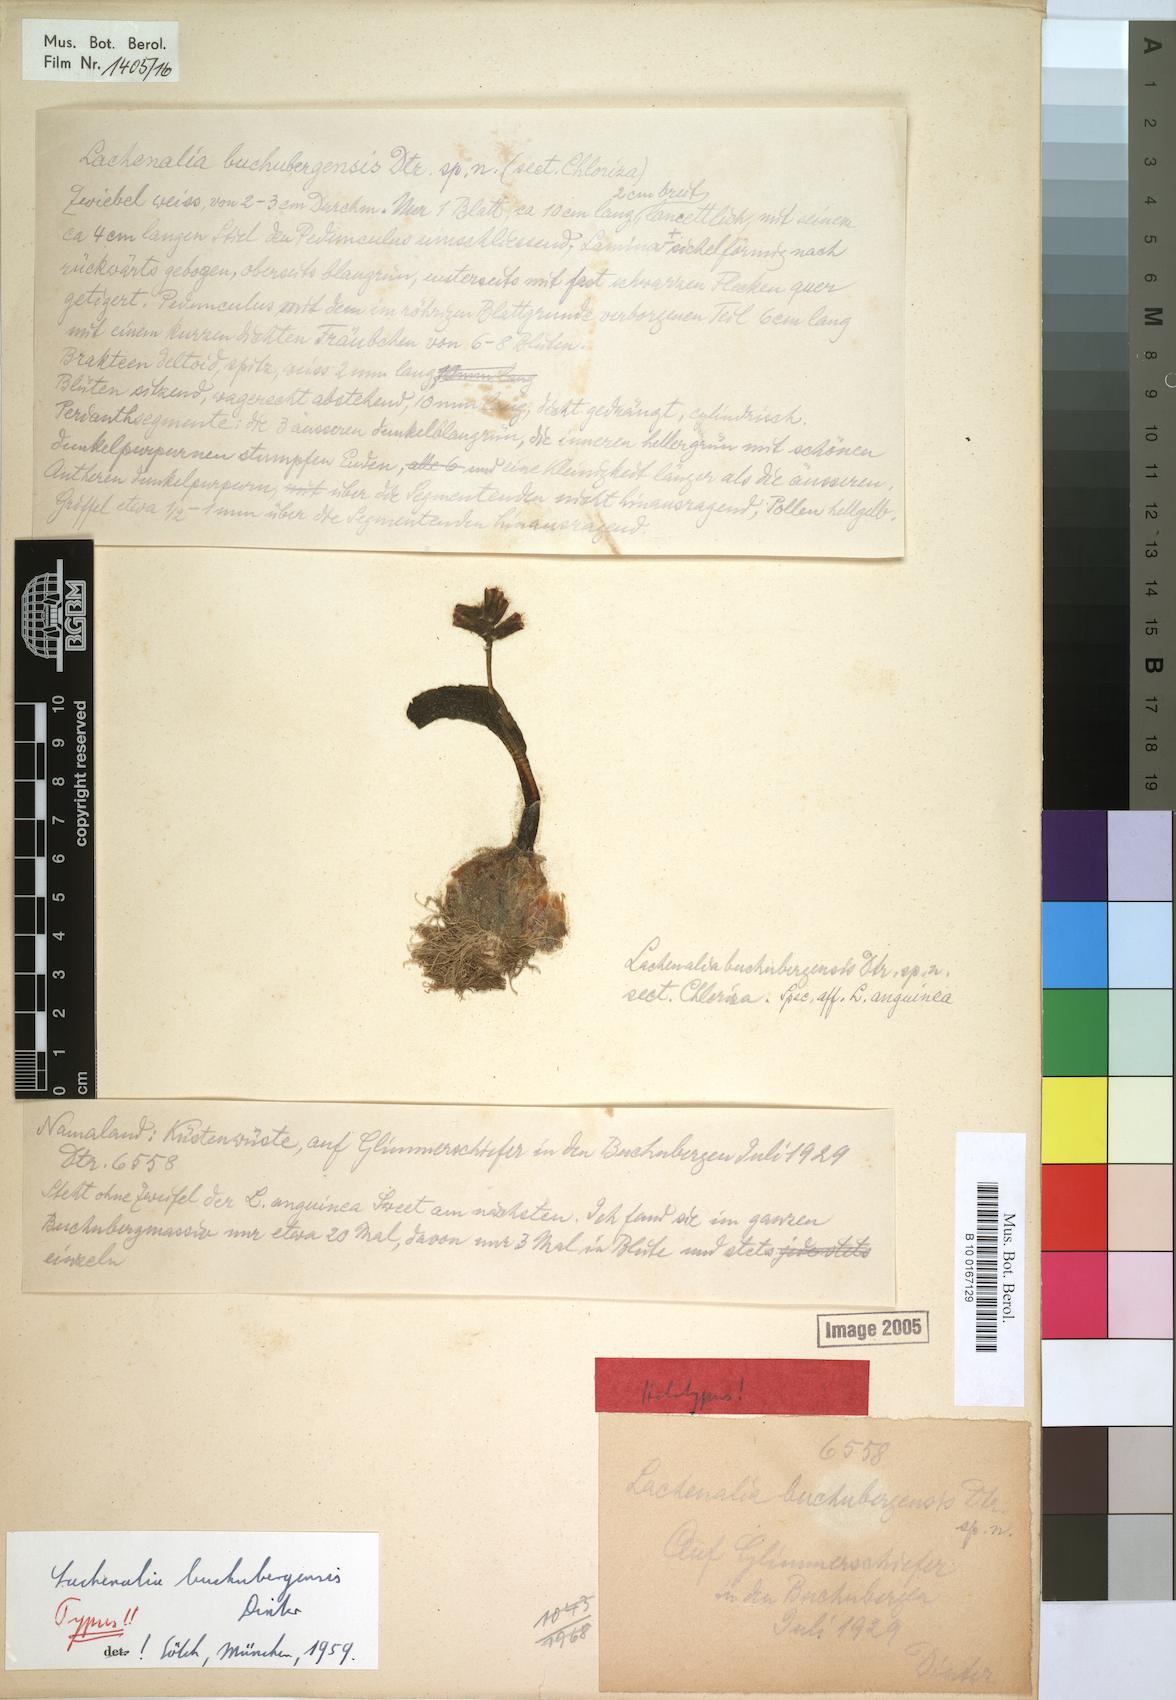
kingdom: Plantae
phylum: Tracheophyta
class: Liliopsida
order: Asparagales
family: Asparagaceae
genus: Lachenalia
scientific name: Lachenalia buchubergensis
